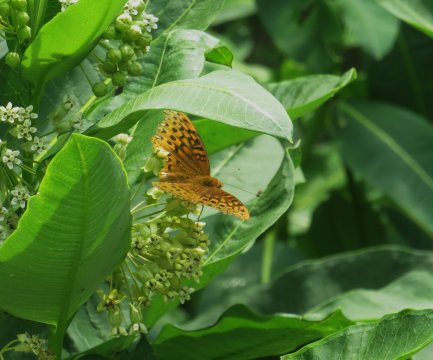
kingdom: Animalia
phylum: Arthropoda
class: Insecta
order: Lepidoptera
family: Nymphalidae
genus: Speyeria
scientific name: Speyeria cybele
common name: Great Spangled Fritillary
